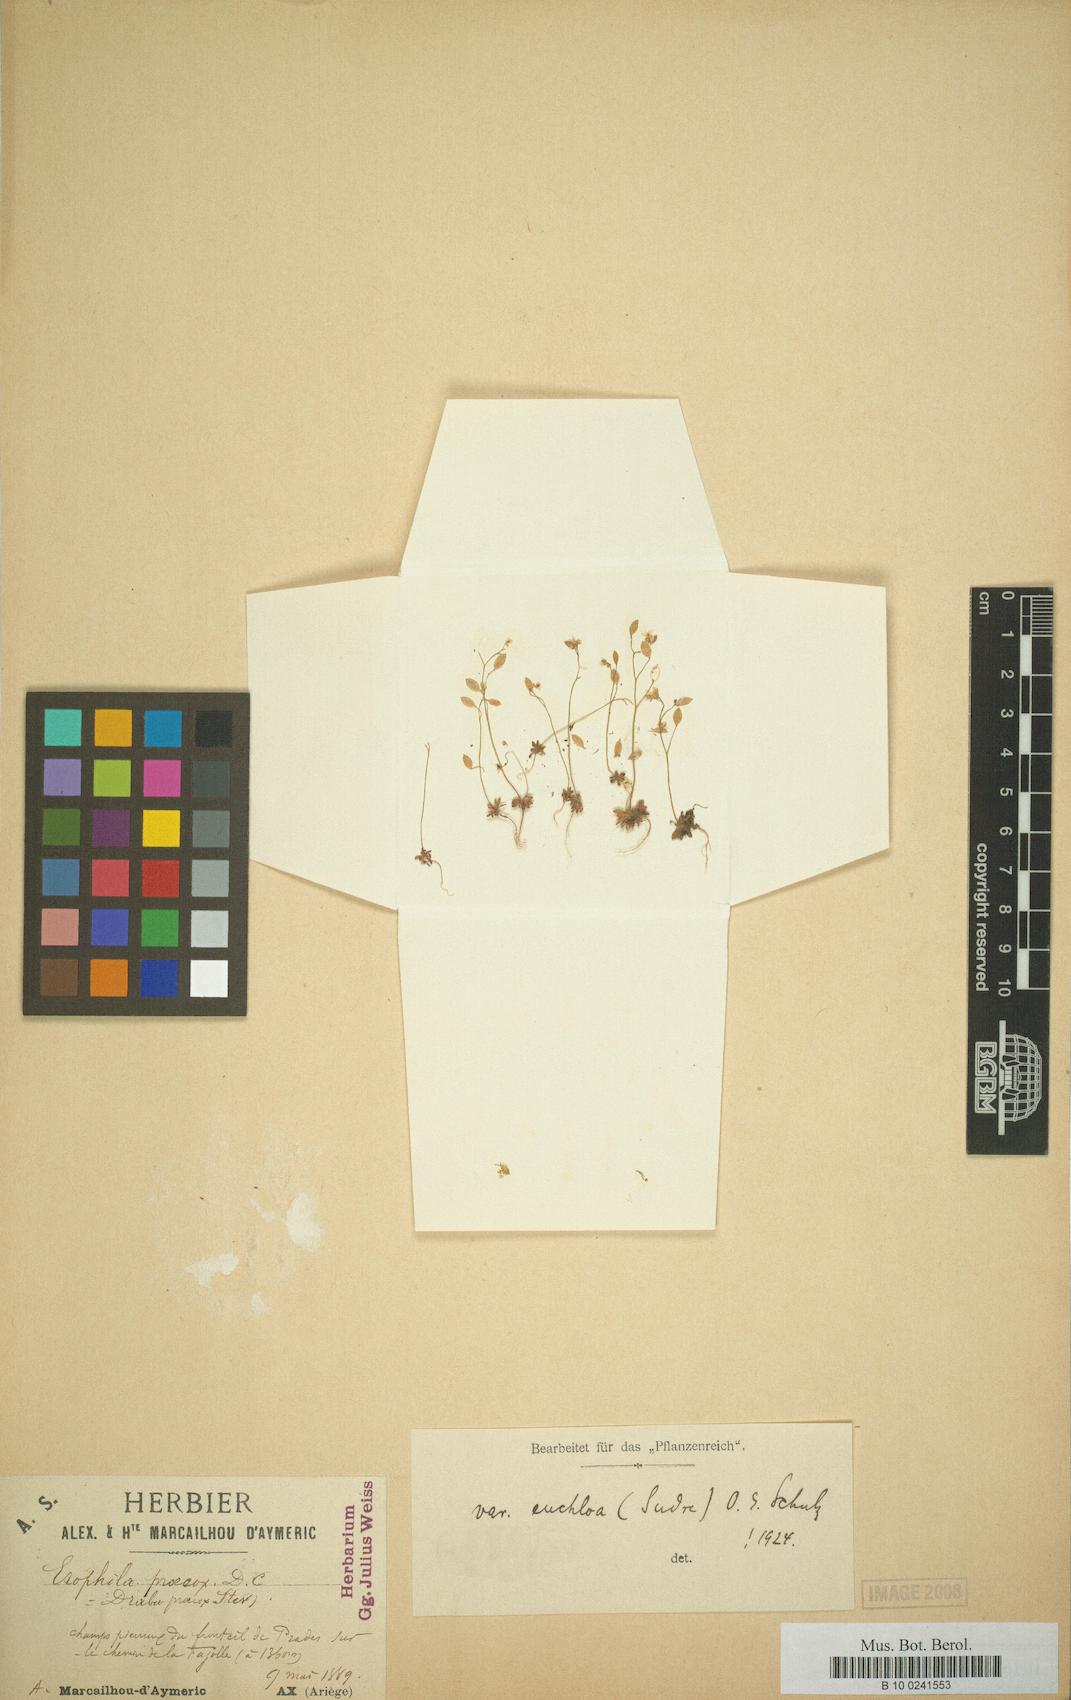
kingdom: Plantae
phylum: Tracheophyta
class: Magnoliopsida
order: Brassicales
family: Brassicaceae
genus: Draba
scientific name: Draba verna
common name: Spring draba
